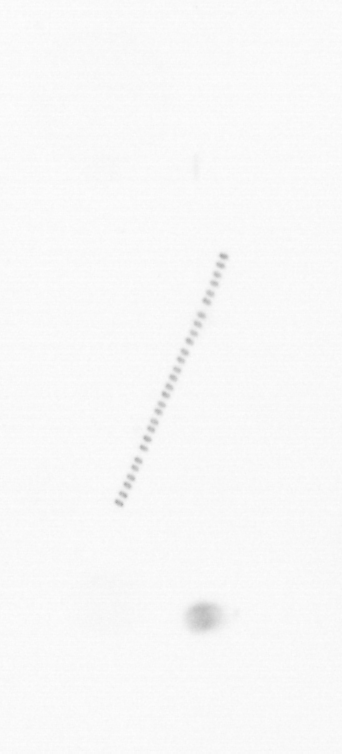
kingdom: Chromista
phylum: Ochrophyta
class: Bacillariophyceae
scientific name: Bacillariophyceae
